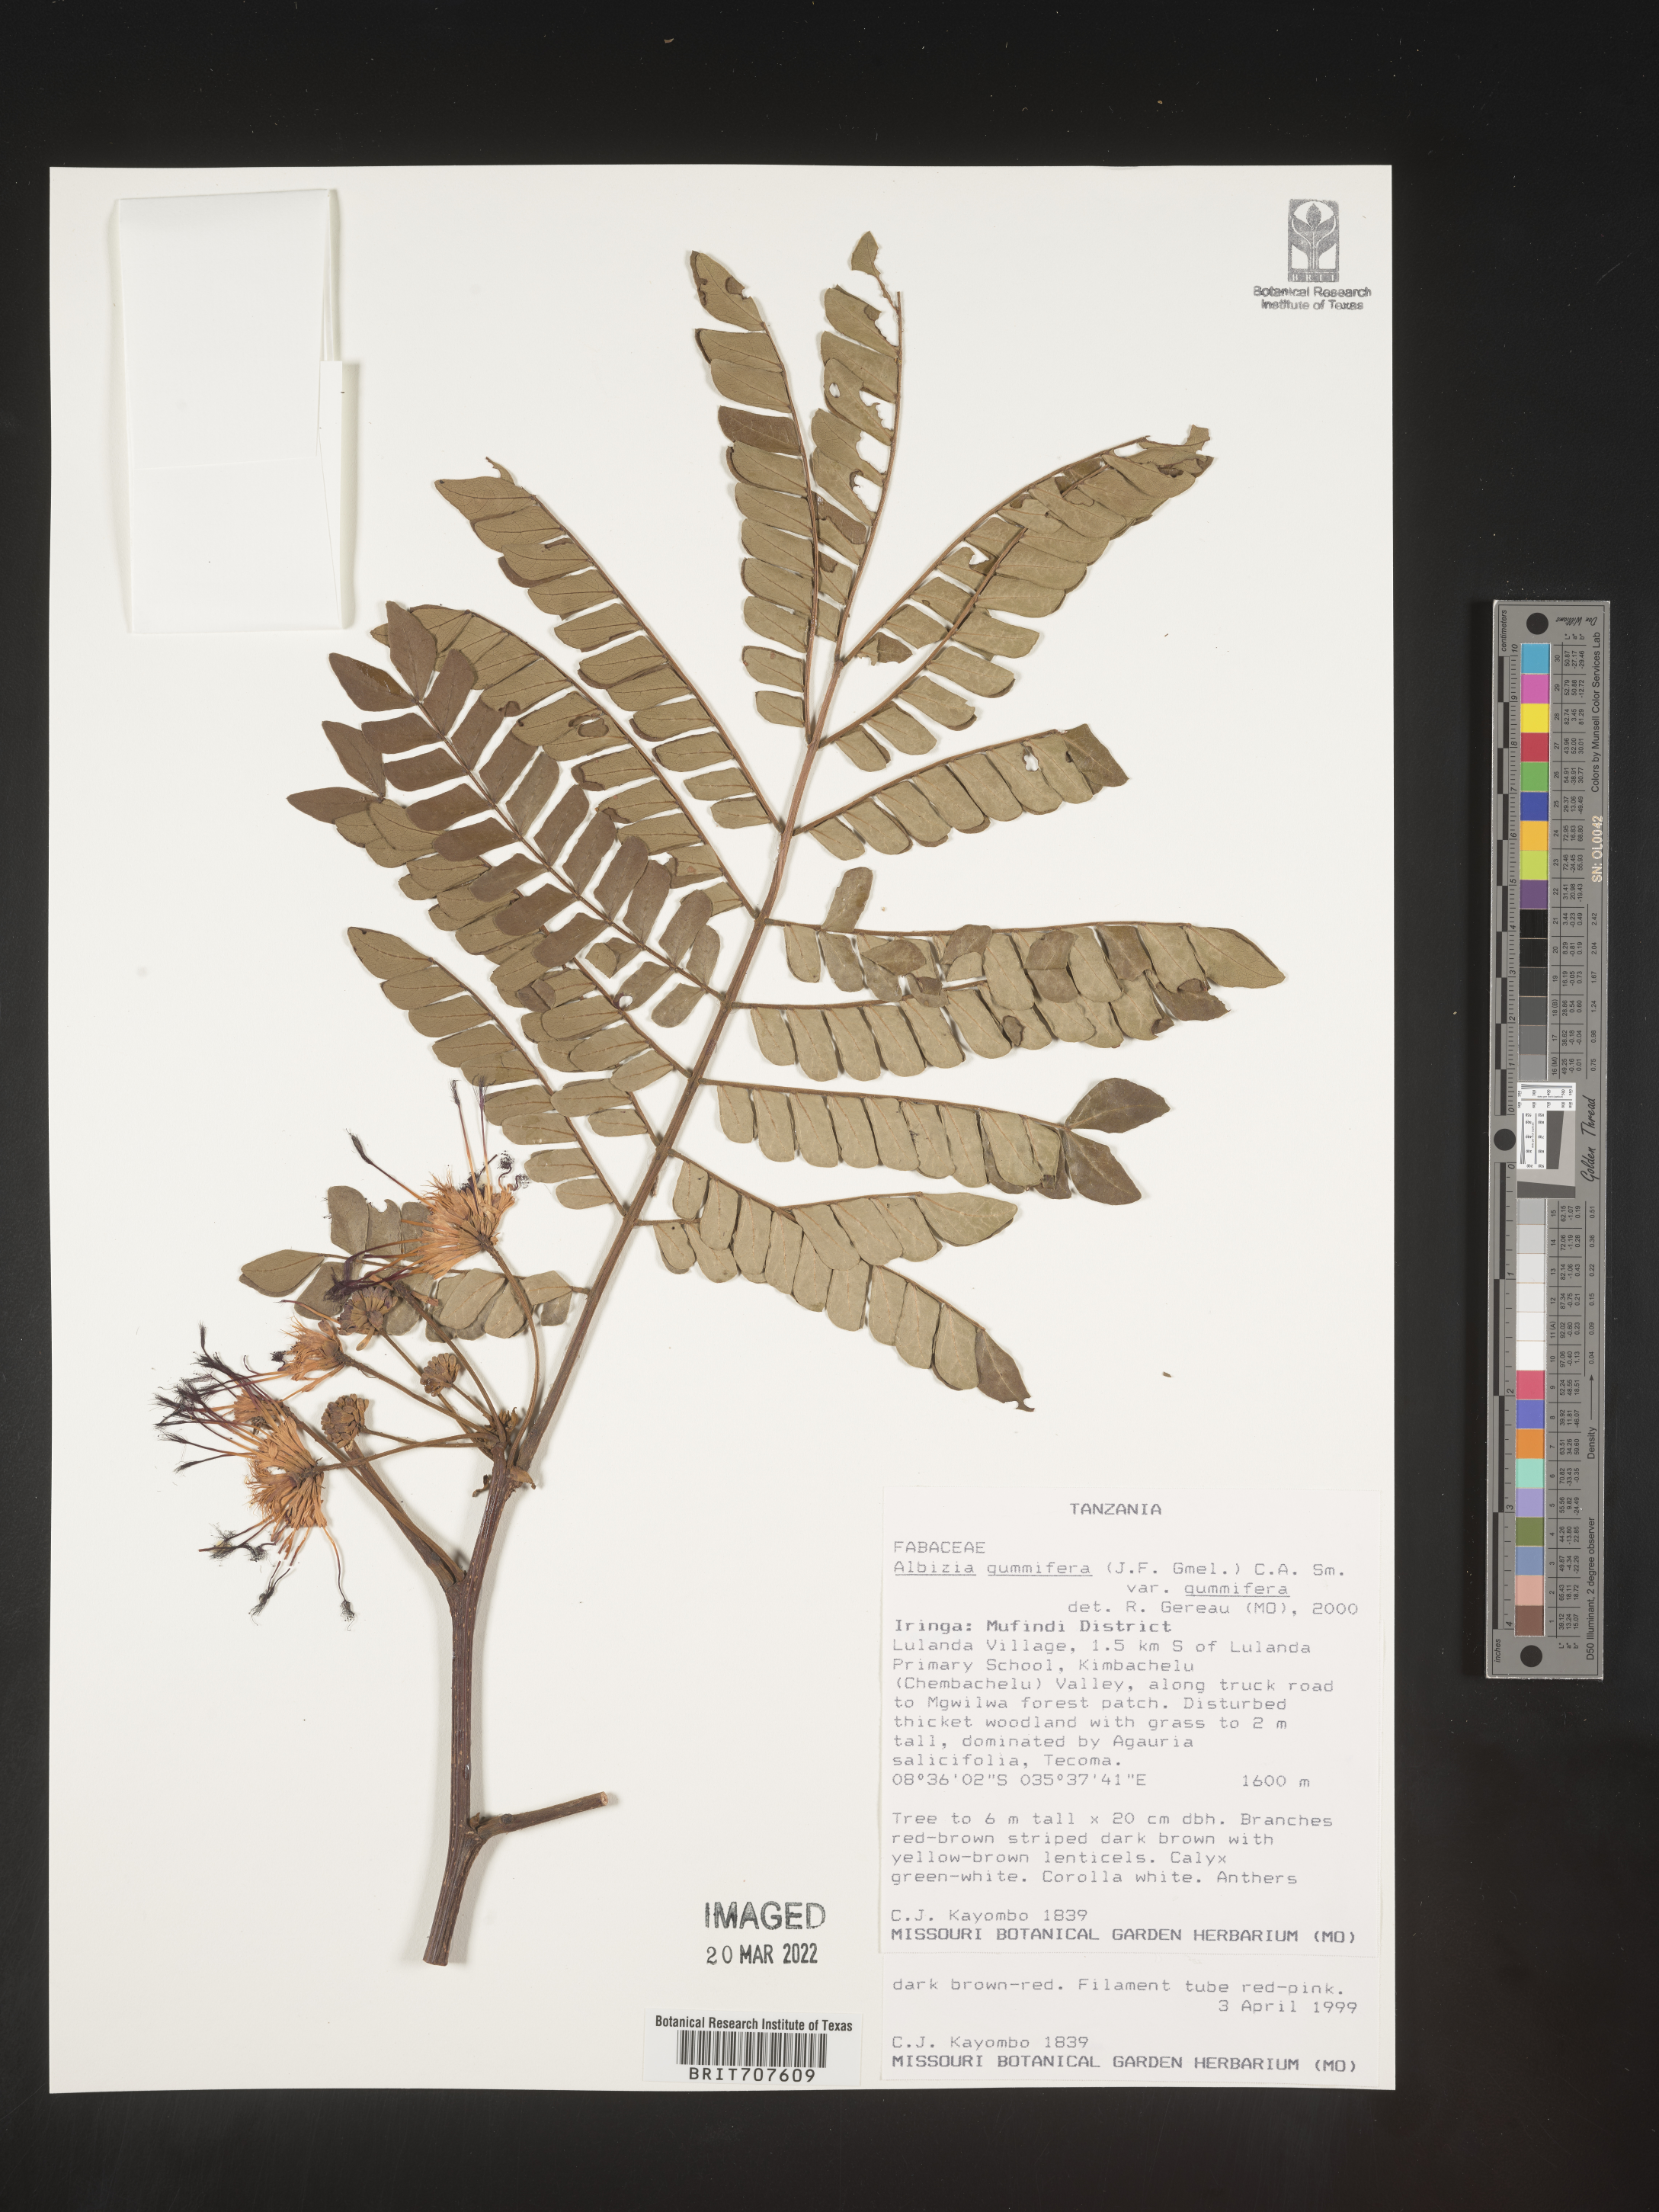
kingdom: Plantae
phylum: Tracheophyta
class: Magnoliopsida
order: Fabales
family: Fabaceae
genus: Albizia
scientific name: Albizia
